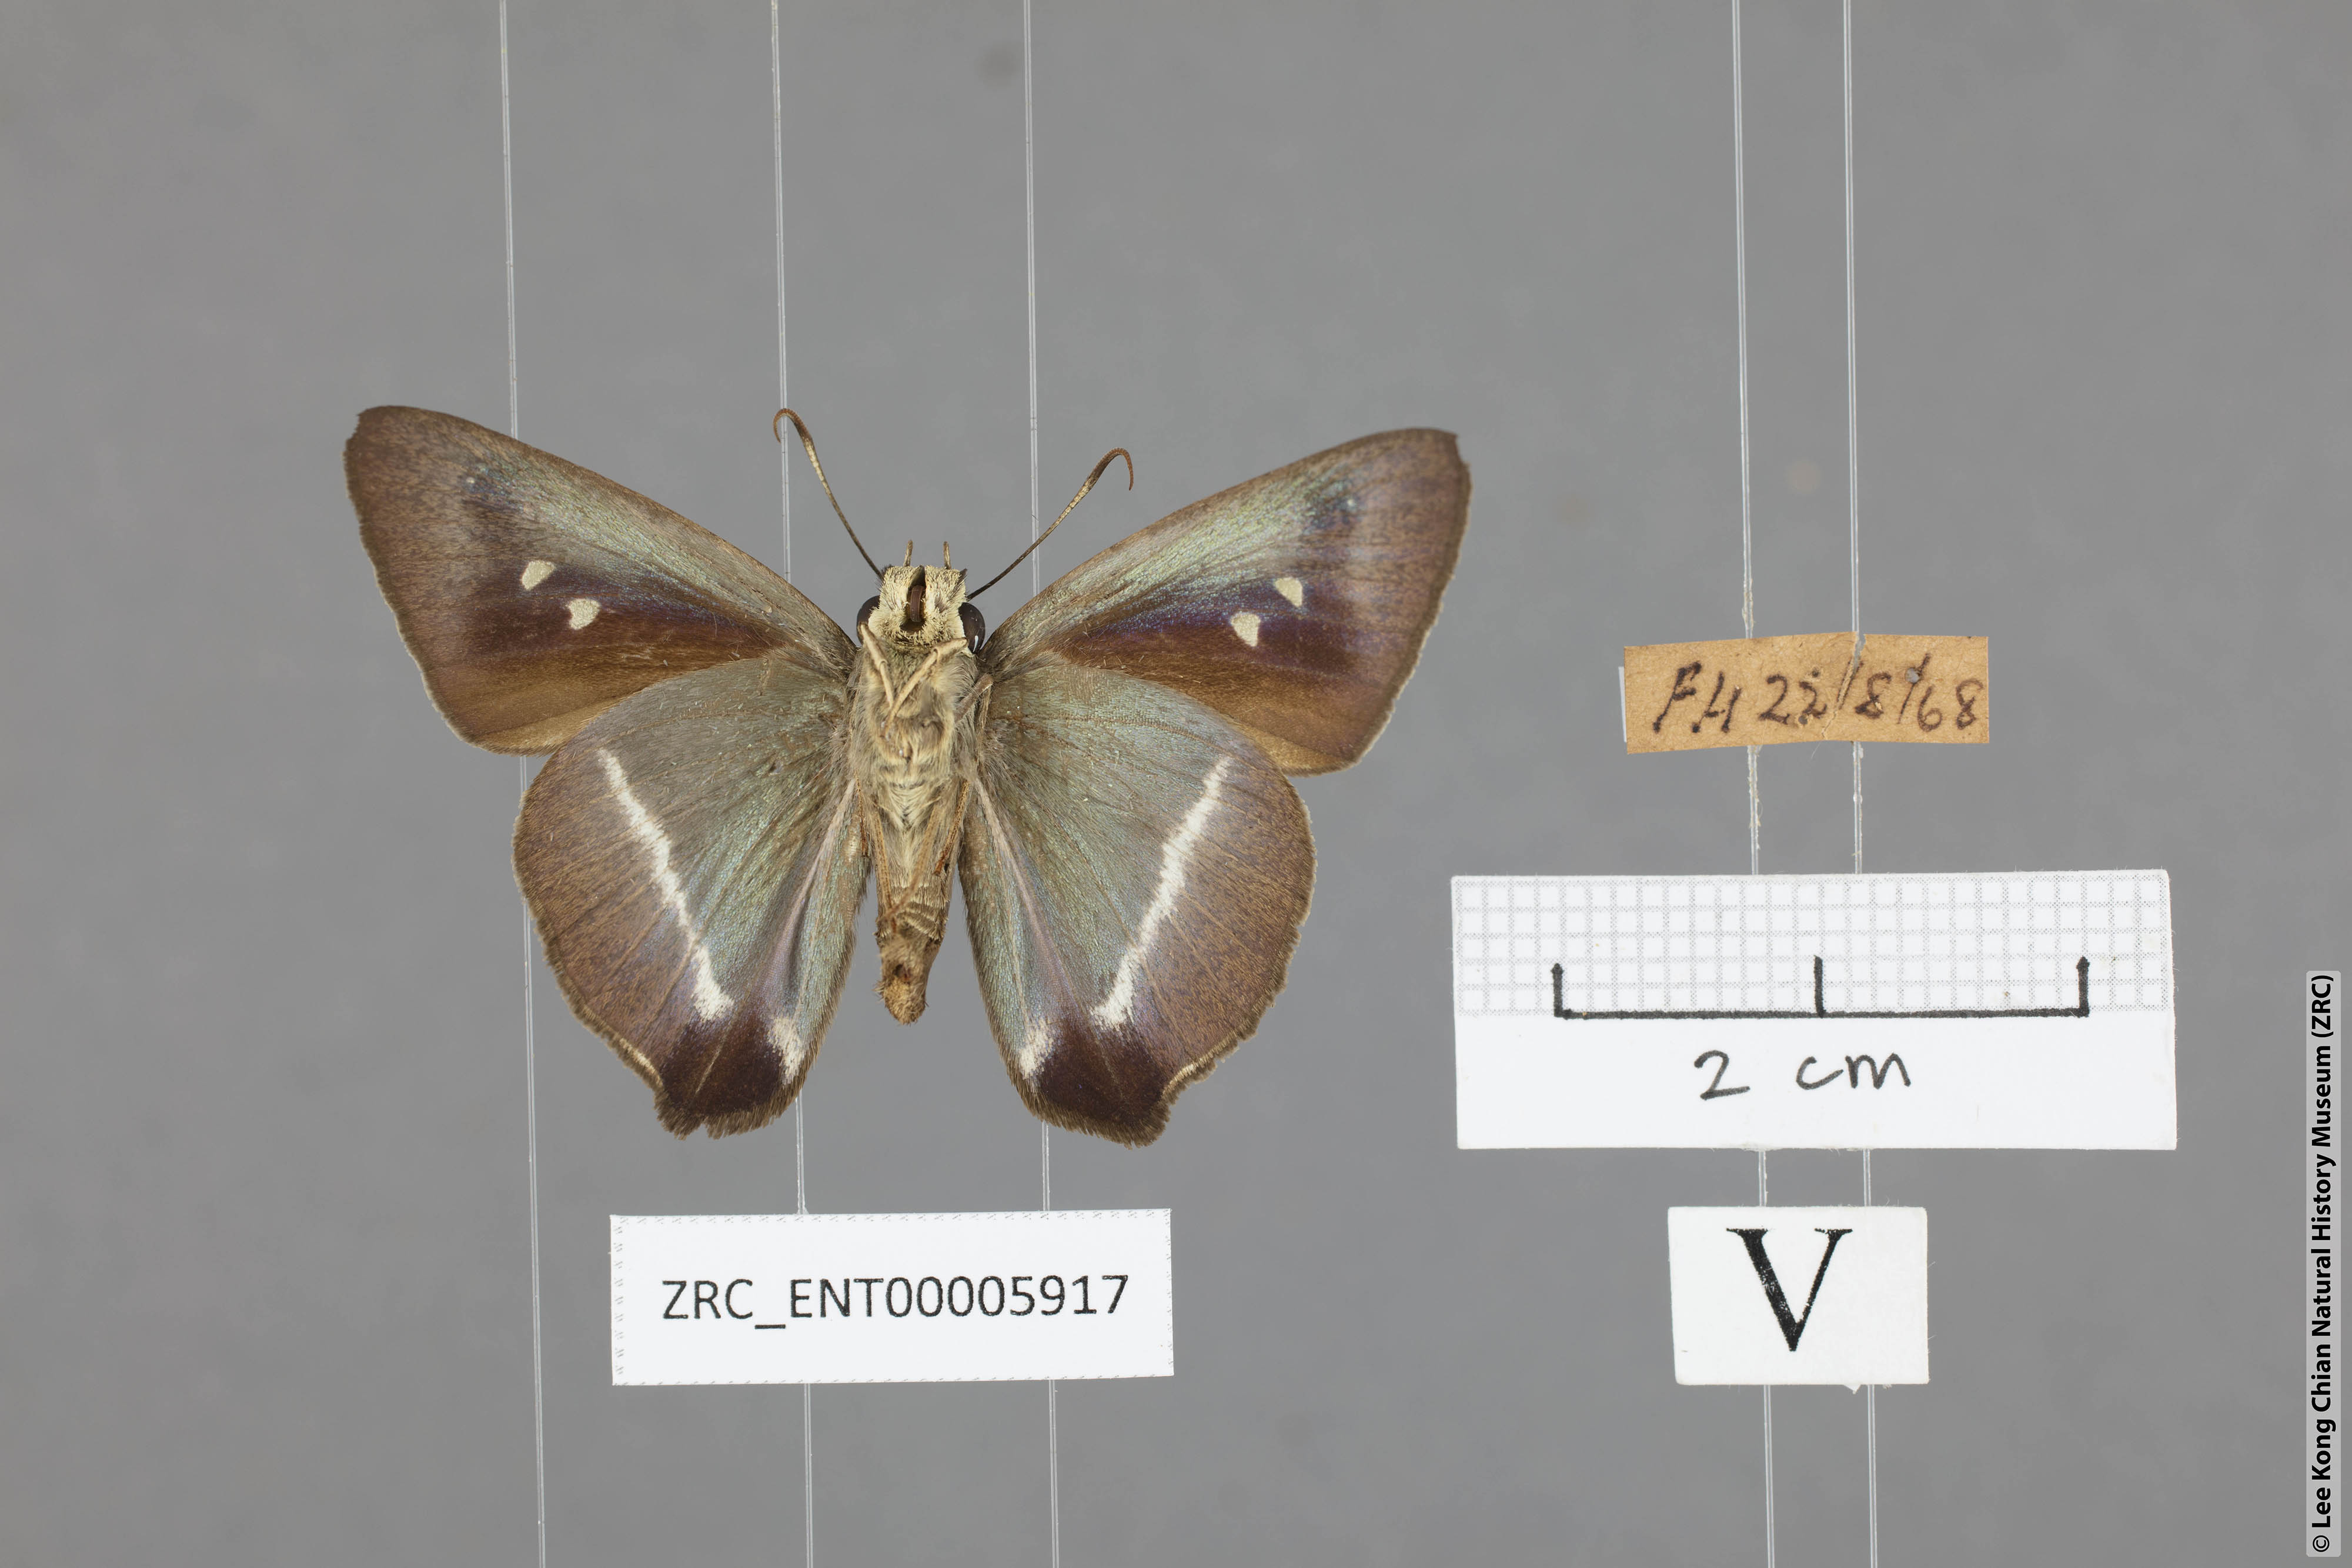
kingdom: Animalia
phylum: Arthropoda
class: Insecta
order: Lepidoptera
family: Hesperiidae
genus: Hasora
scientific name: Hasora taminatus
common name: White banded awl
